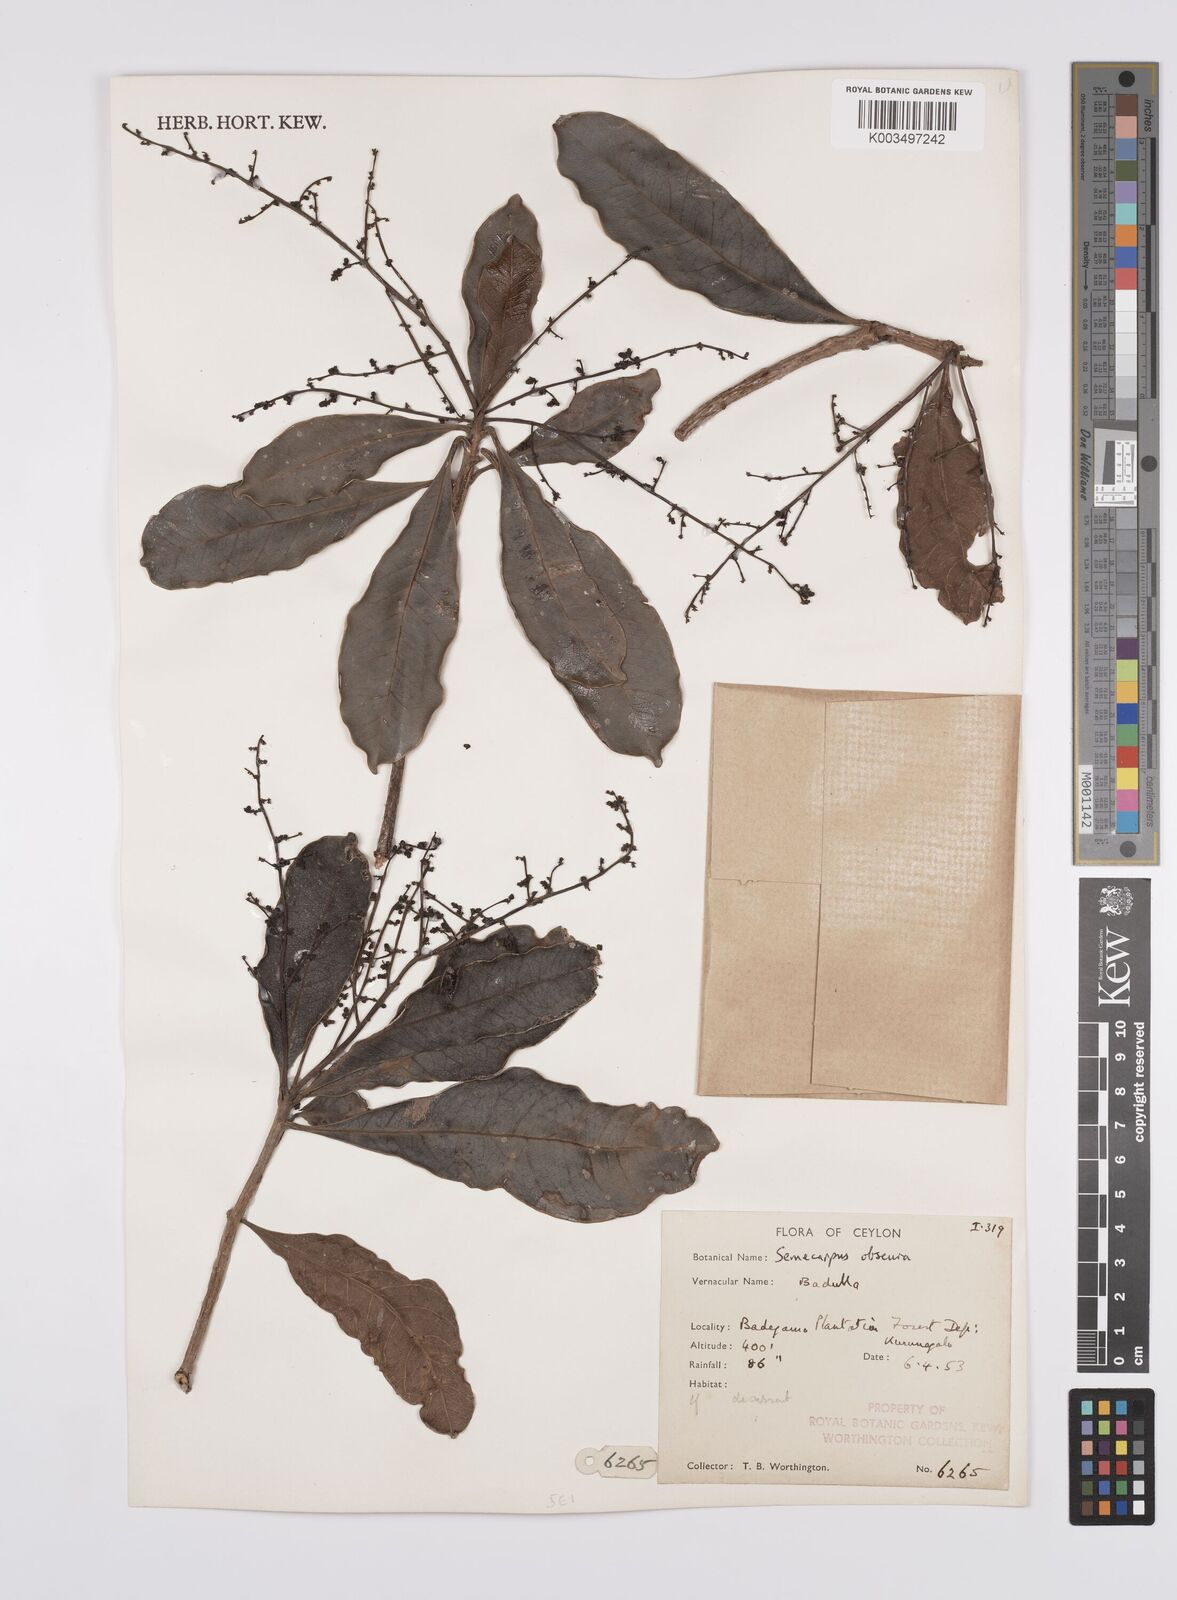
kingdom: Plantae
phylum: Tracheophyta
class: Magnoliopsida
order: Sapindales
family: Anacardiaceae
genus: Semecarpus
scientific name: Semecarpus walkeri
